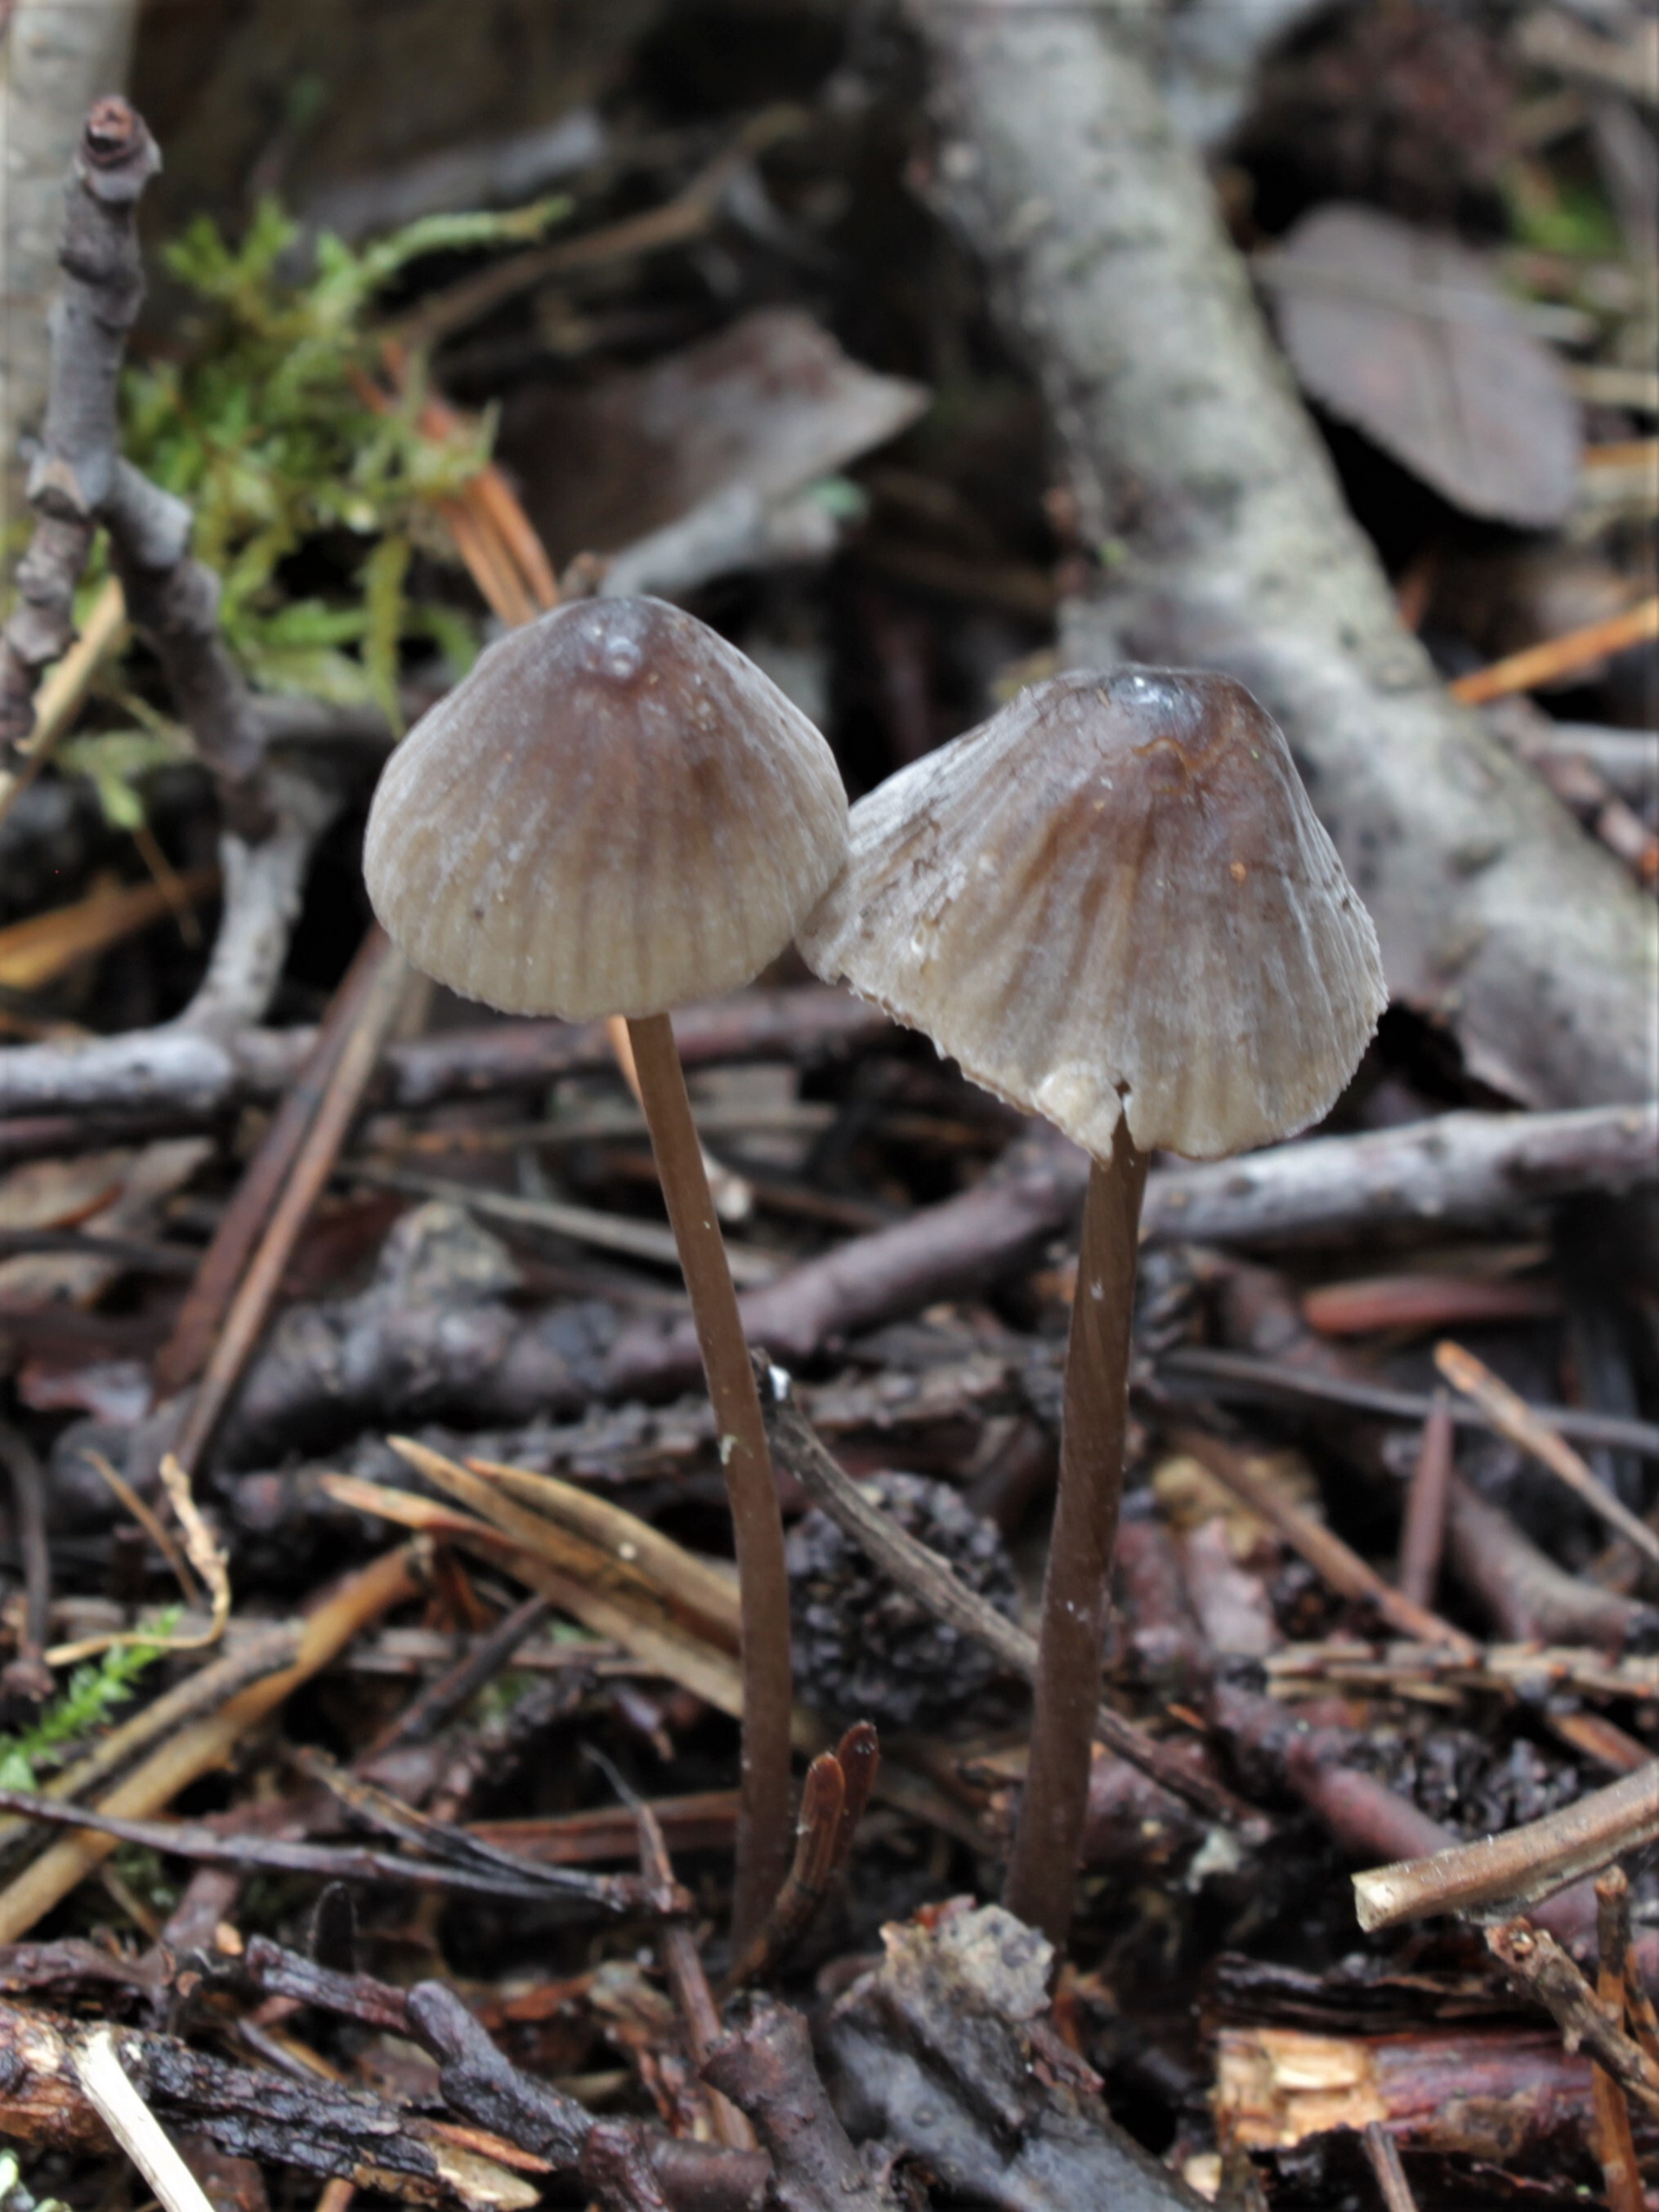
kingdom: Fungi
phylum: Basidiomycota
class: Agaricomycetes
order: Agaricales
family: Mycenaceae
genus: Mycena
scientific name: Mycena galopus
